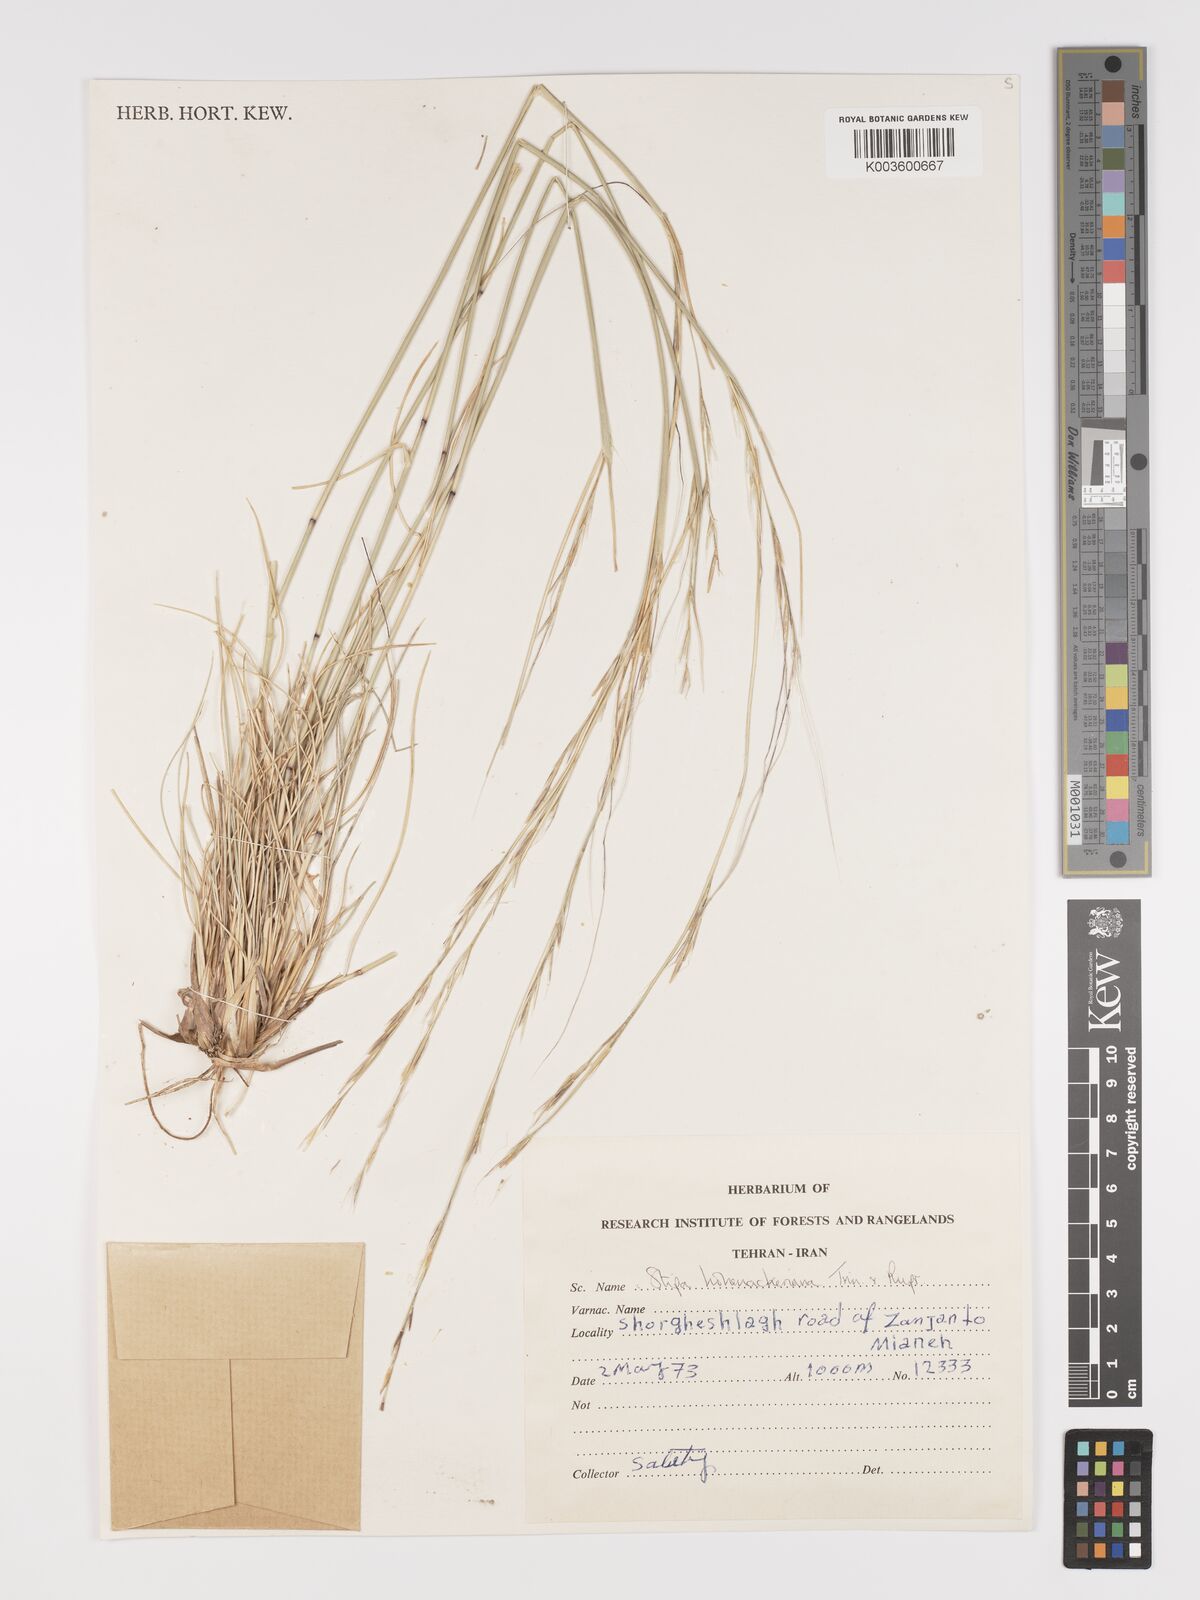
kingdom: Plantae
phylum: Tracheophyta
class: Liliopsida
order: Poales
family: Poaceae
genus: Stipa
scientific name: Stipa hohenackeriana
